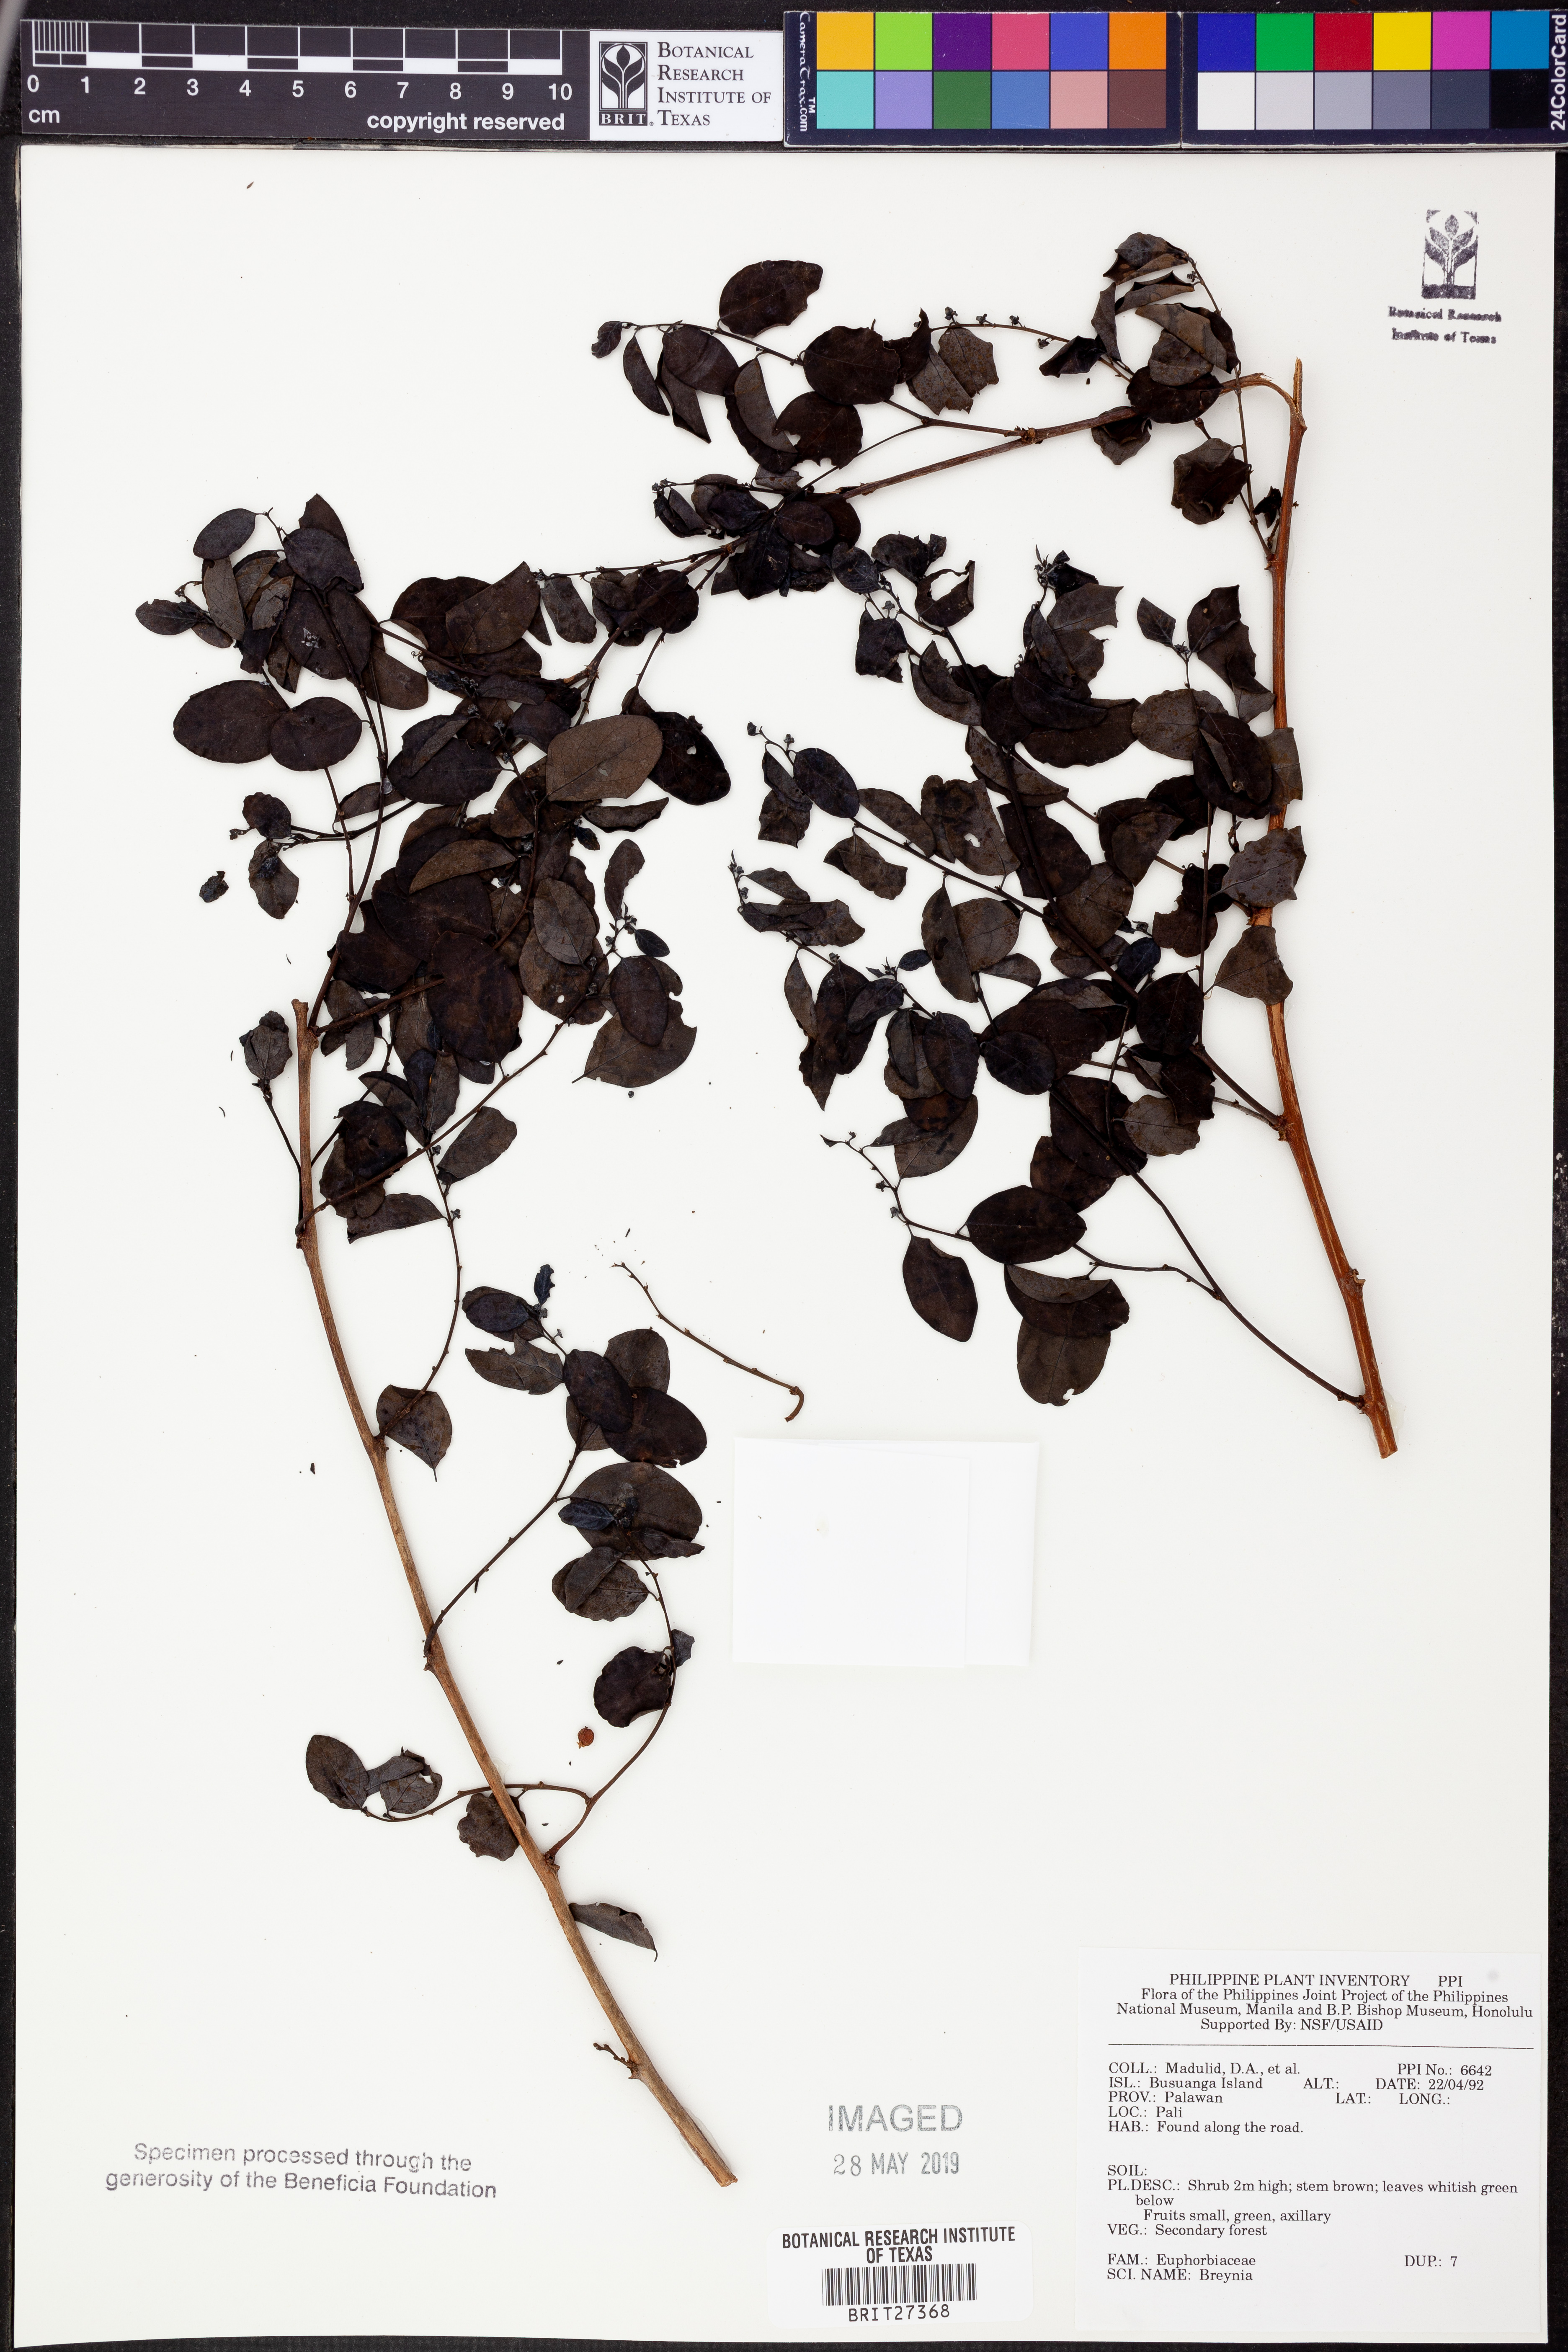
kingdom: Plantae
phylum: Tracheophyta
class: Magnoliopsida
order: Malpighiales
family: Phyllanthaceae
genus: Breynia
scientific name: Breynia
